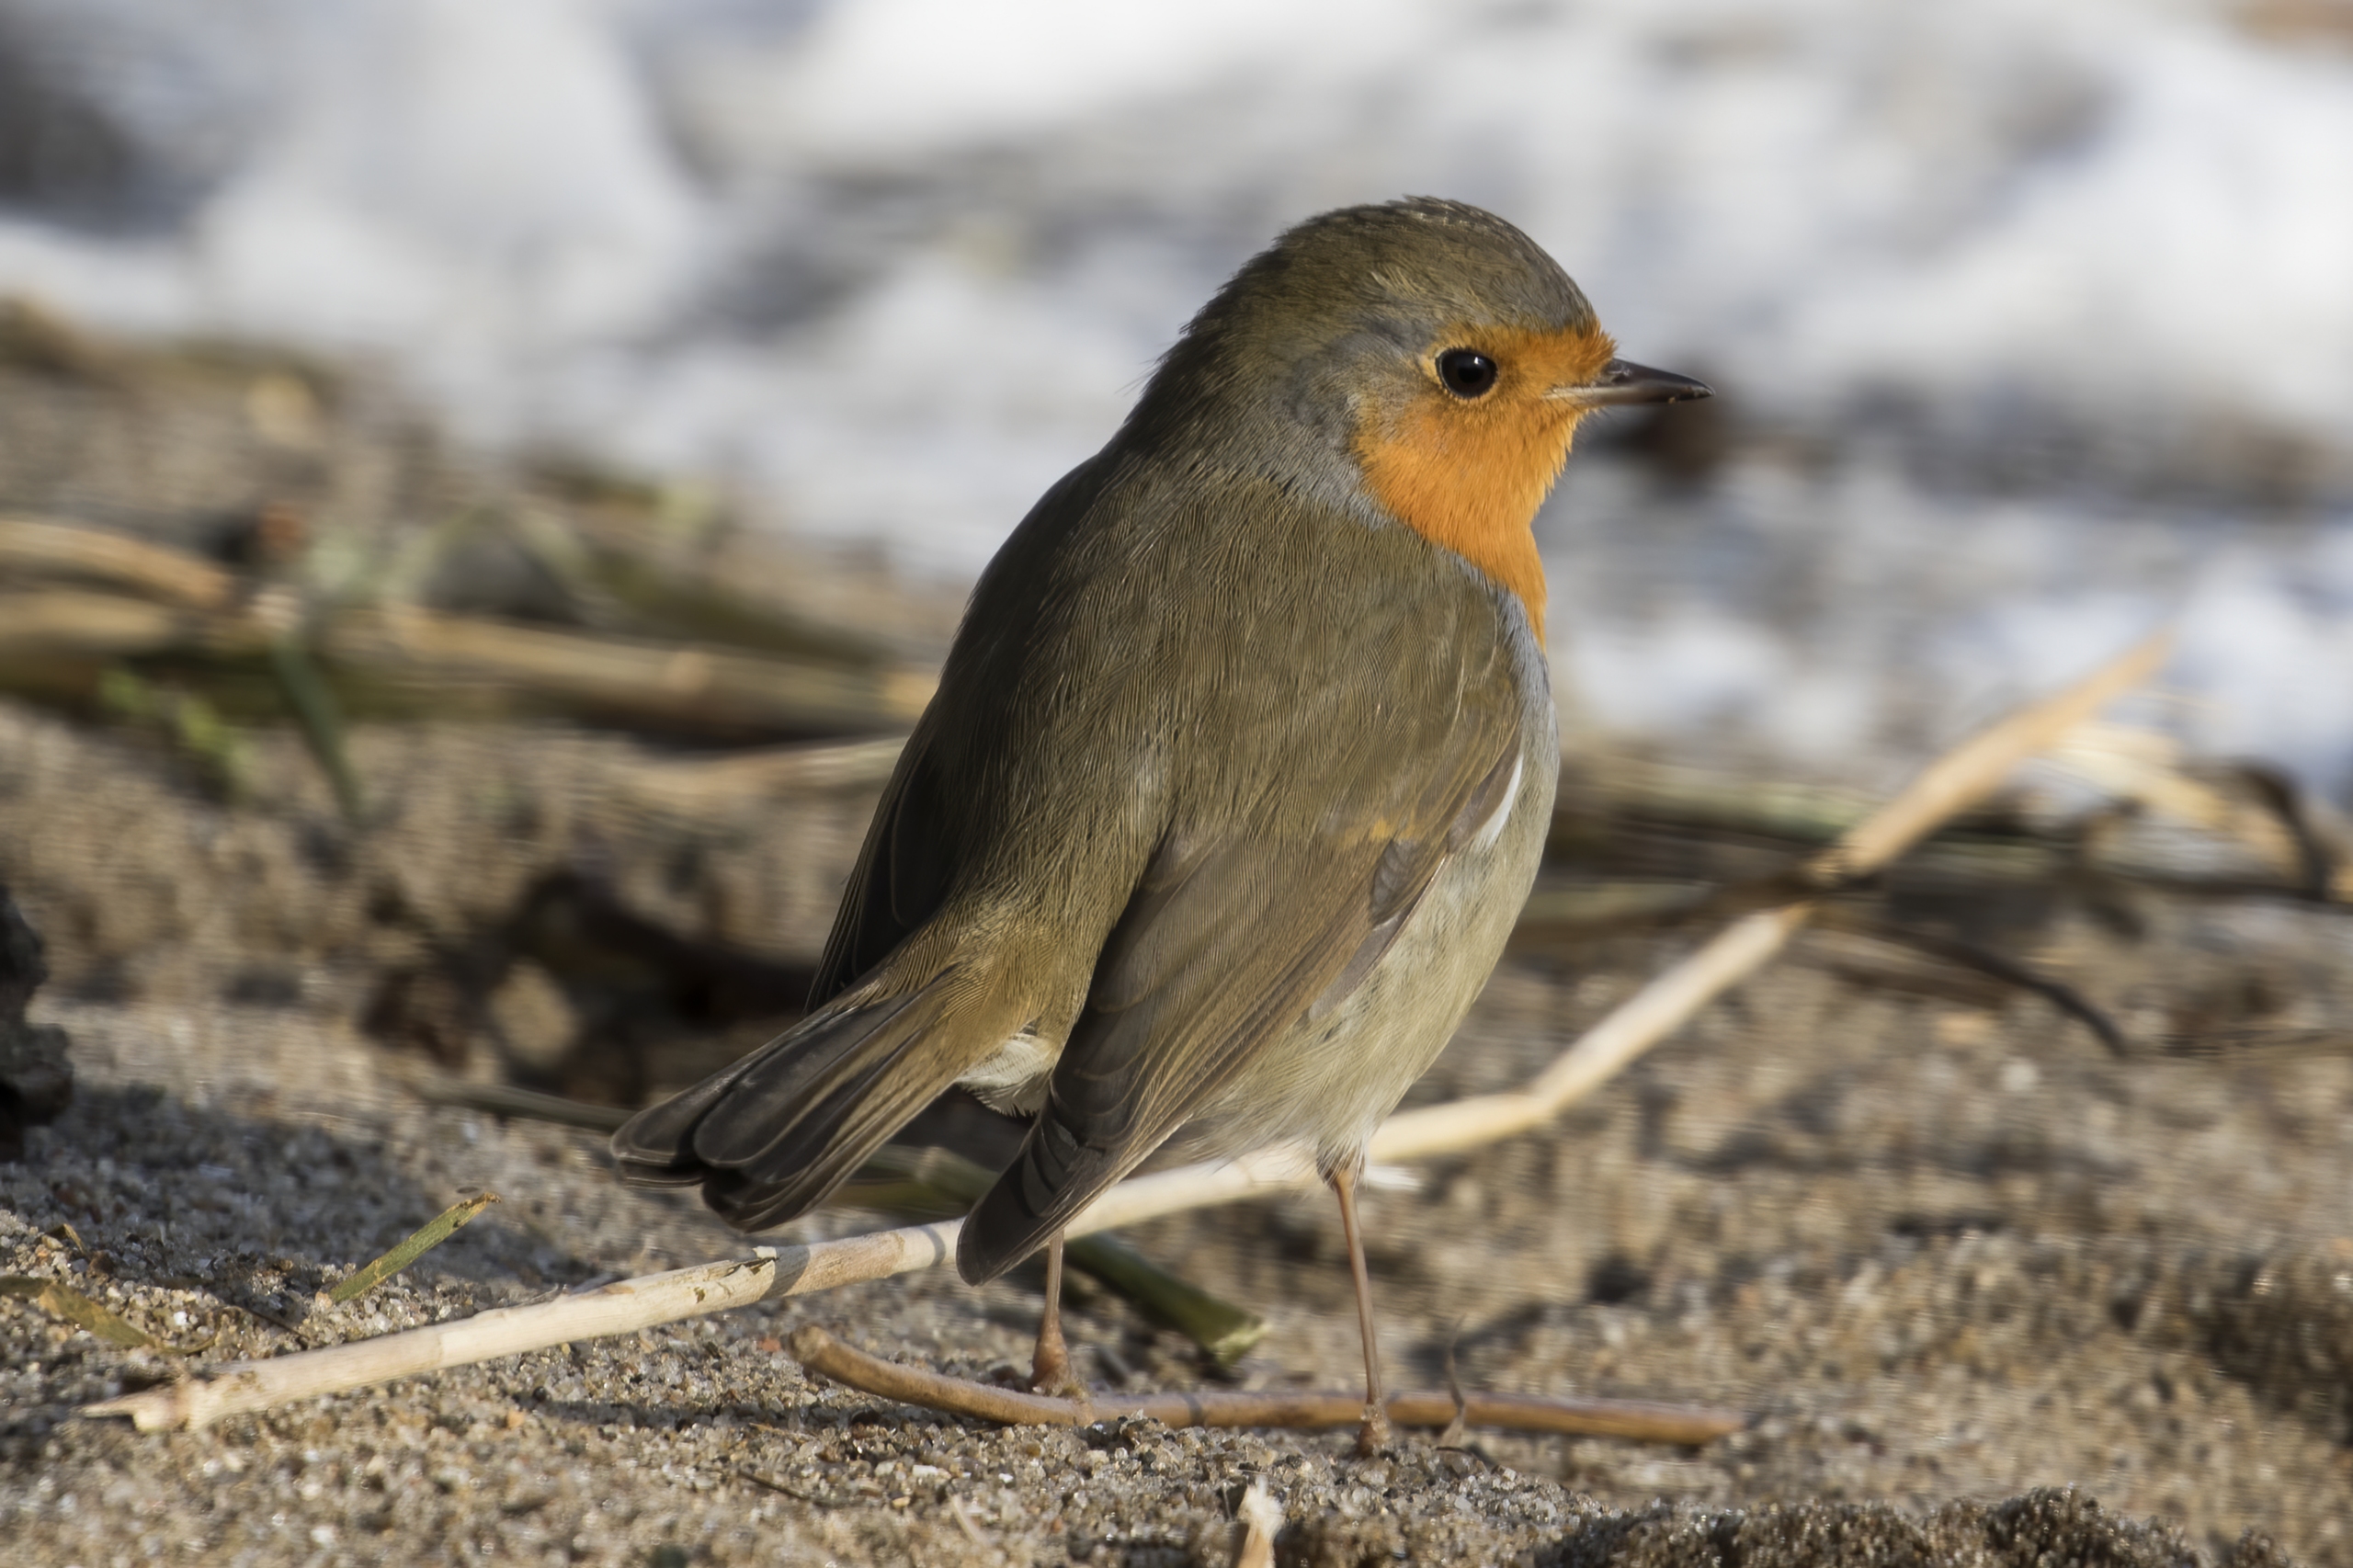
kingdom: Animalia
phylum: Chordata
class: Aves
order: Passeriformes
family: Muscicapidae
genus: Erithacus
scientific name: Erithacus rubecula
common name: Rødhals/rødkælk
